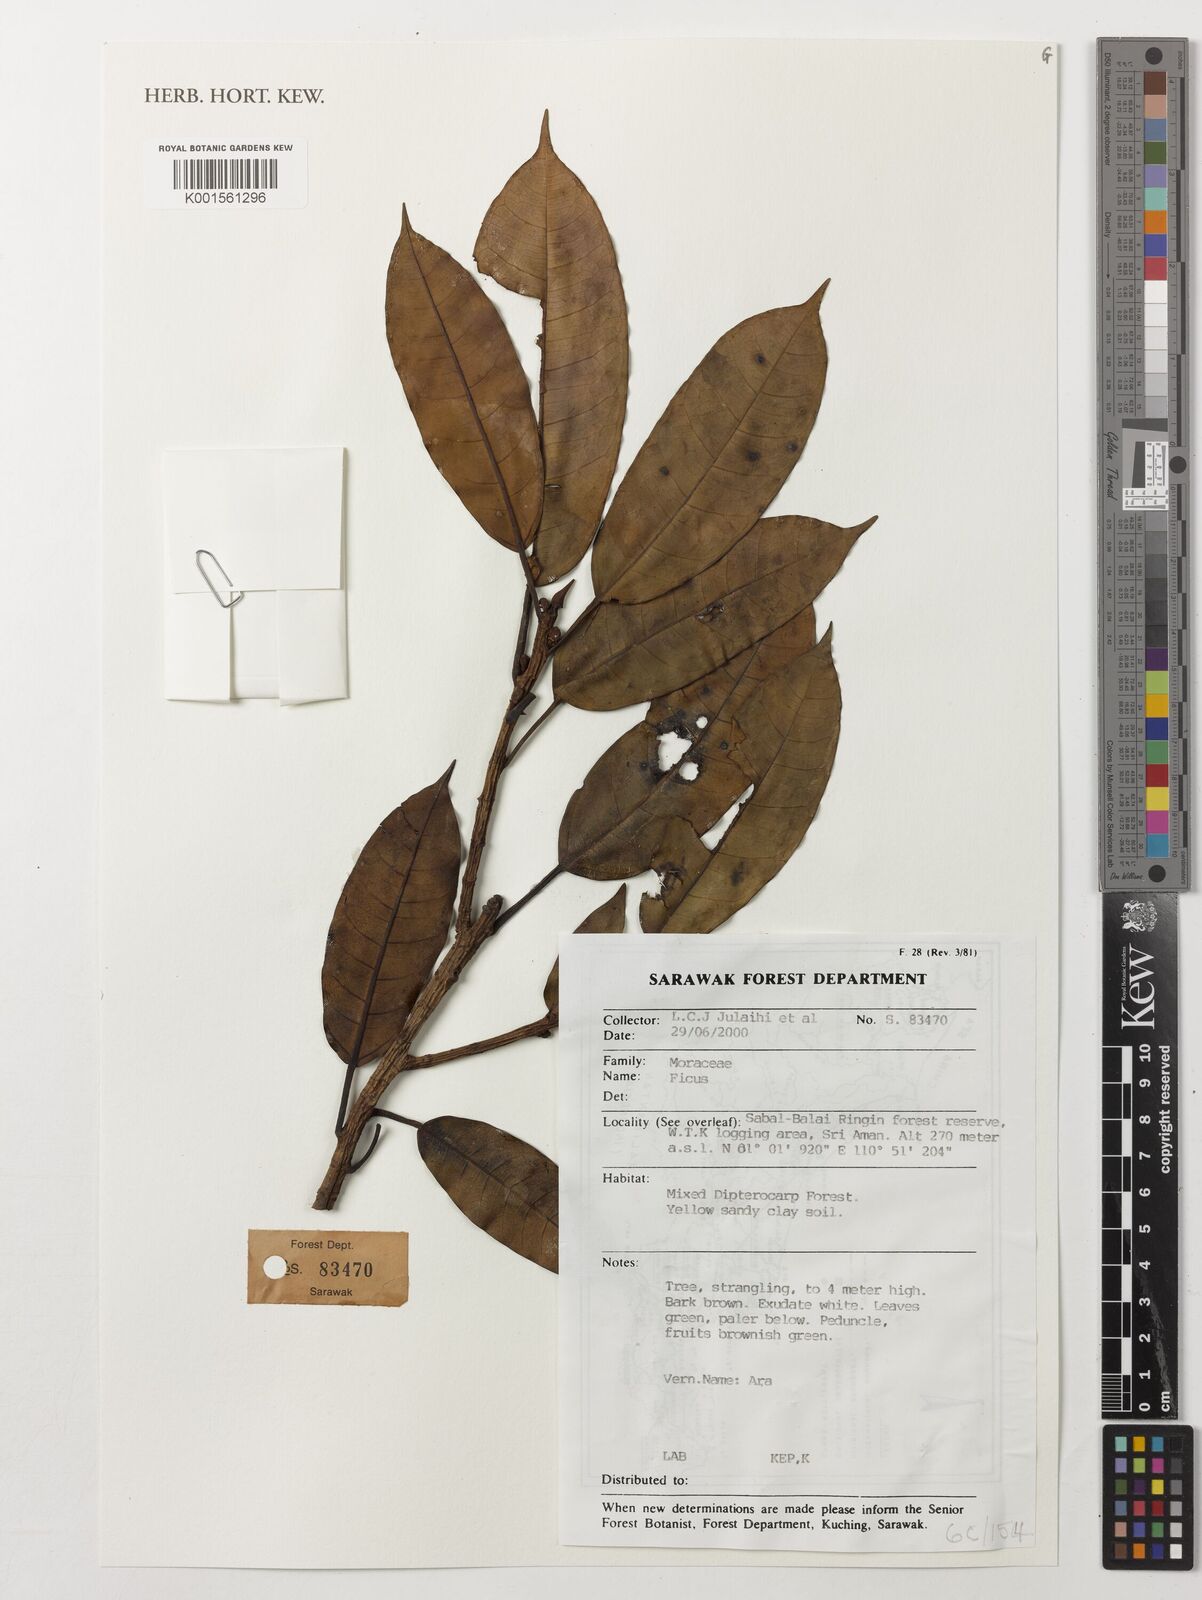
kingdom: Plantae
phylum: Tracheophyta
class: Magnoliopsida
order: Rosales
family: Moraceae
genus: Ficus
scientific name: Ficus
